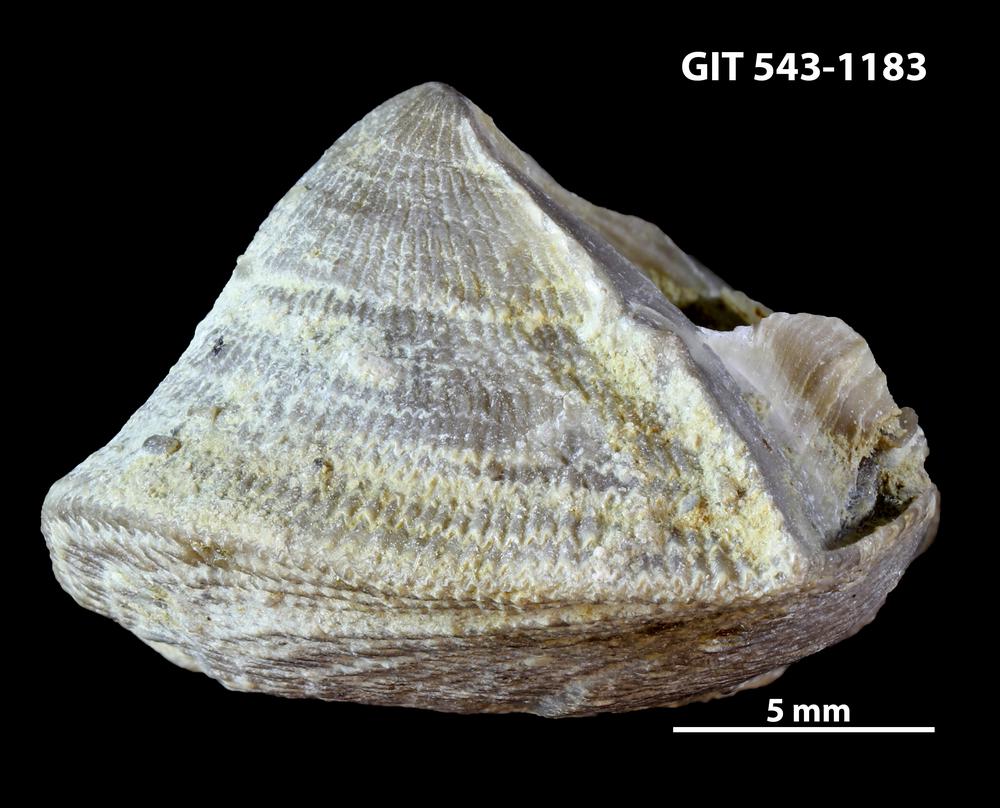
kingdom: Animalia
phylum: Brachiopoda
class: Rhynchonellata
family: Clitambonitidae
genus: Ilmarinia
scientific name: Ilmarinia dimorpha
